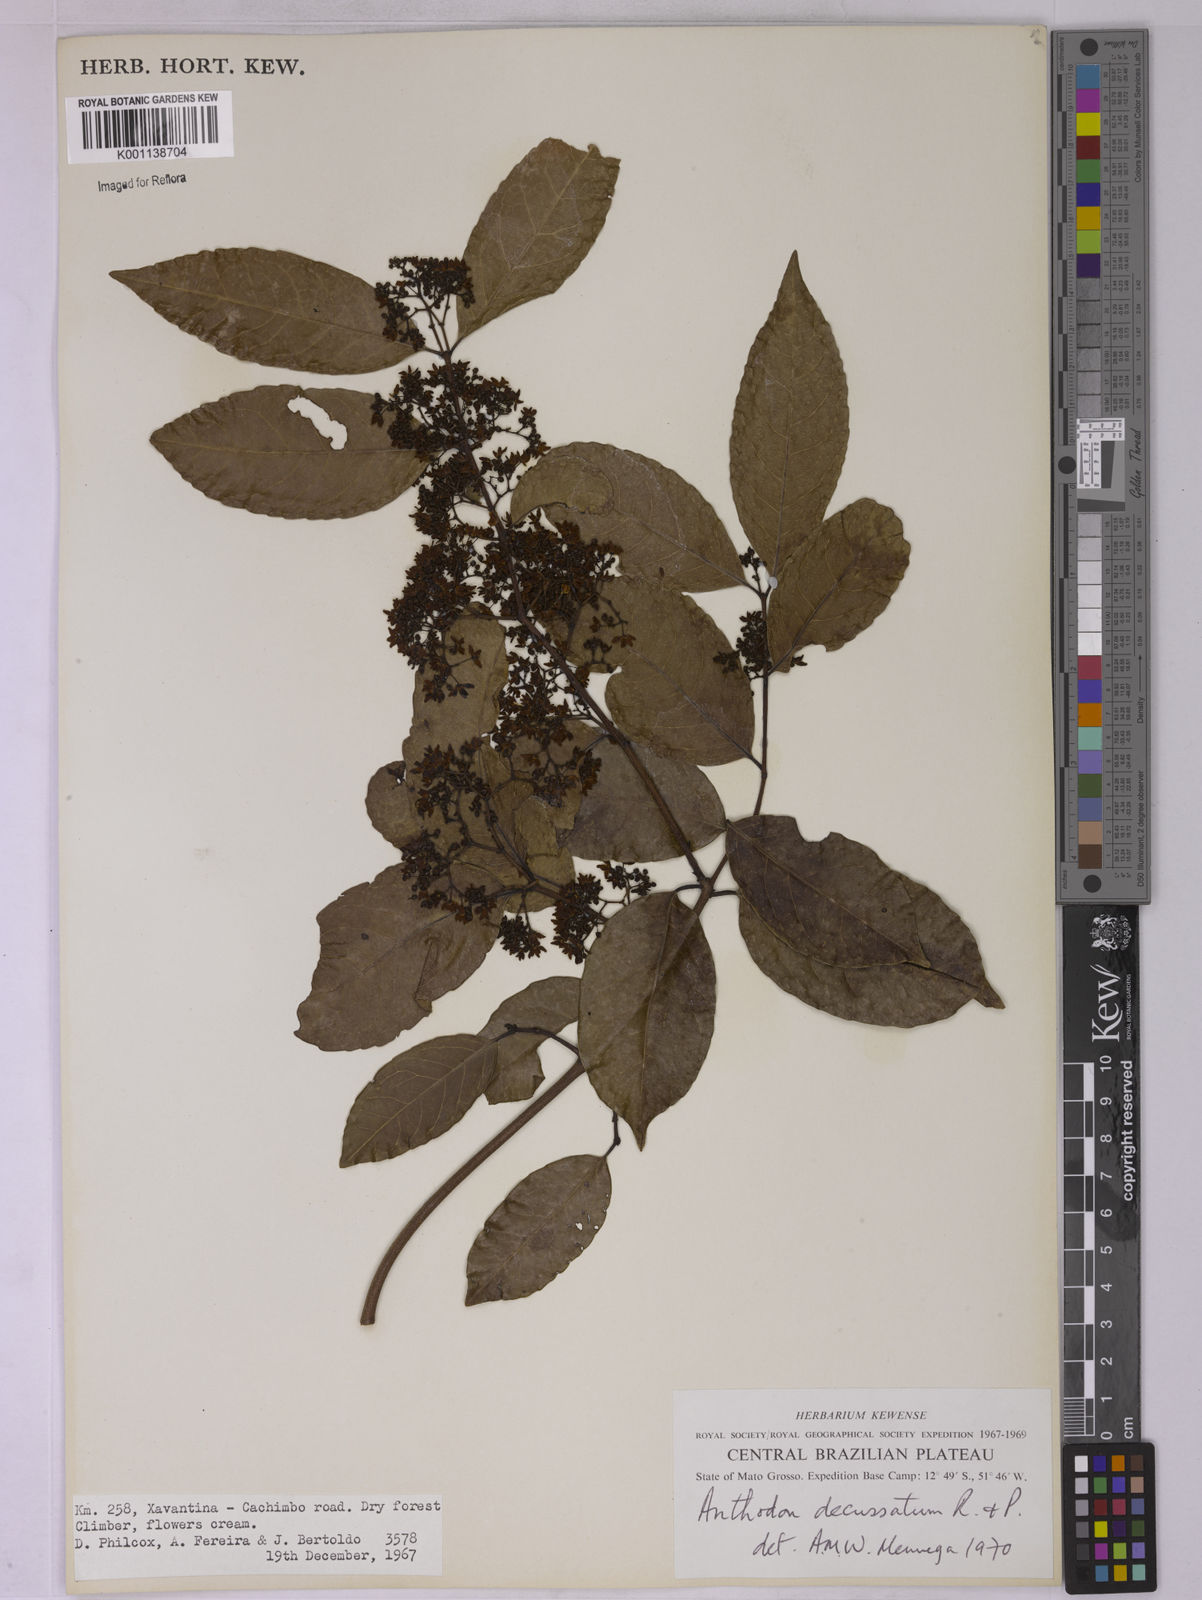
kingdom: Plantae
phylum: Tracheophyta
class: Magnoliopsida
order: Celastrales
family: Celastraceae
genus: Anthodon
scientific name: Anthodon decussatum
